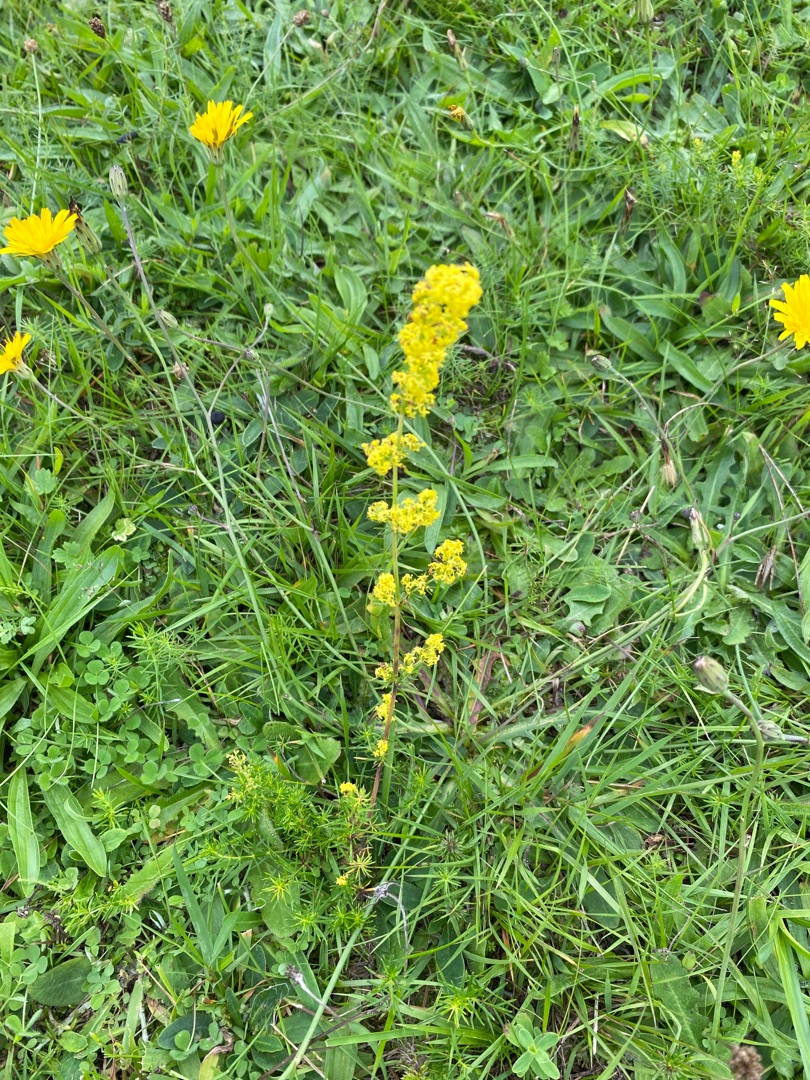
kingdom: Plantae
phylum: Tracheophyta
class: Magnoliopsida
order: Gentianales
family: Rubiaceae
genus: Galium
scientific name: Galium verum
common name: Gul snerre
